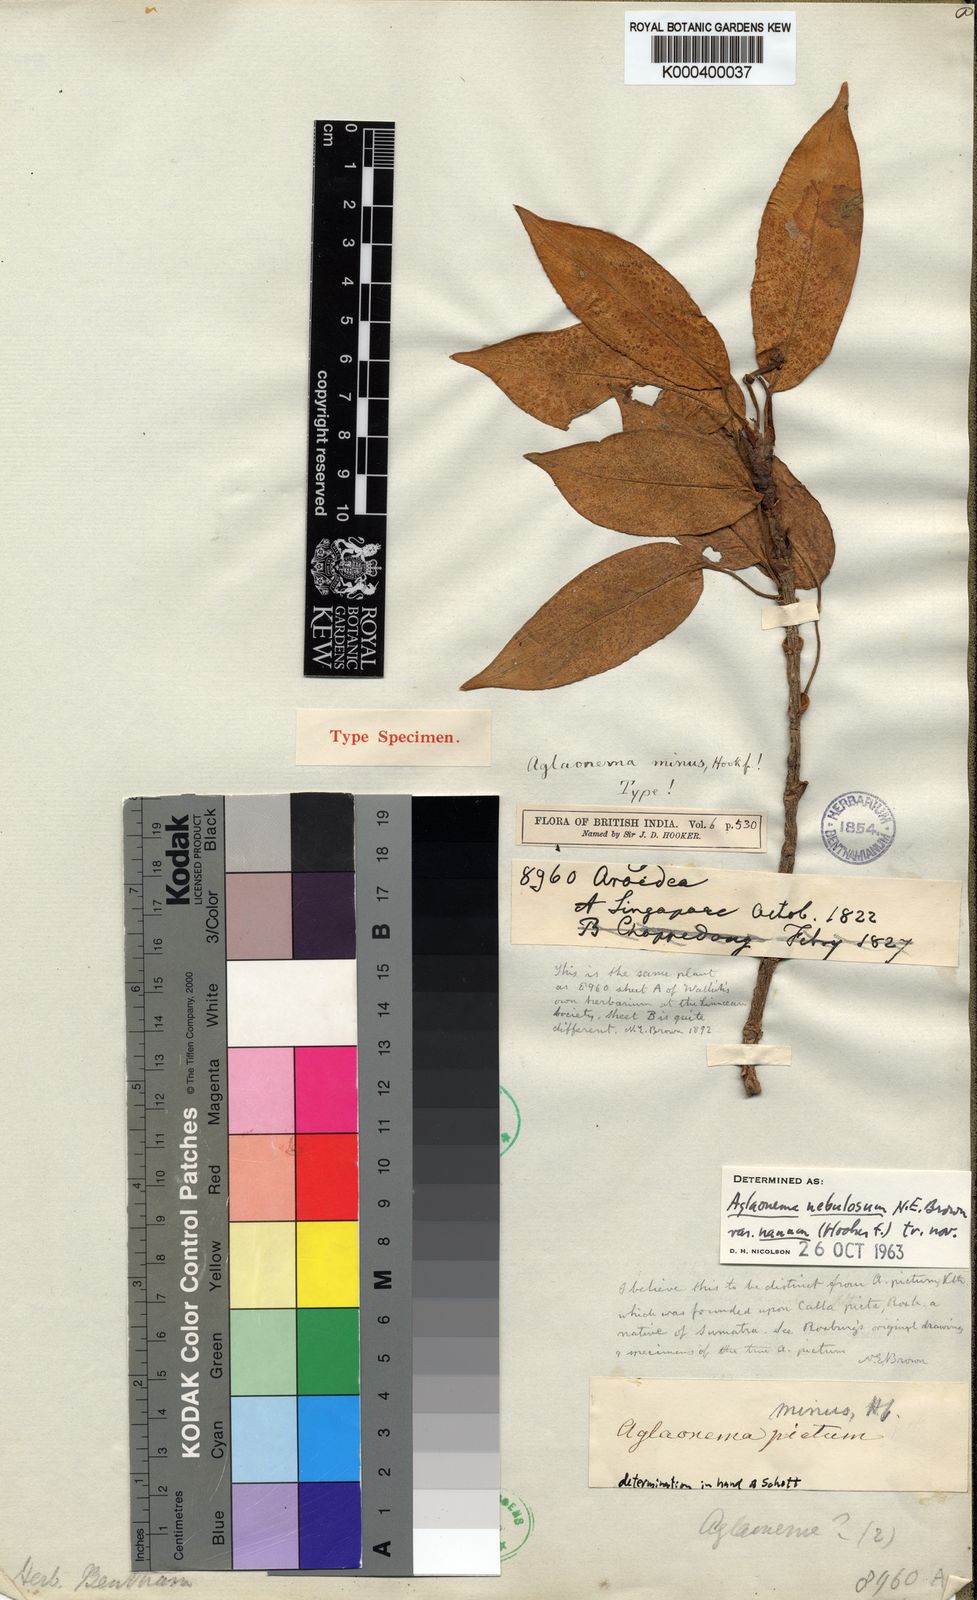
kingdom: Plantae
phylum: Tracheophyta
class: Liliopsida
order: Alismatales
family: Araceae
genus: Aglaonema
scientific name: Aglaonema nebulosum
